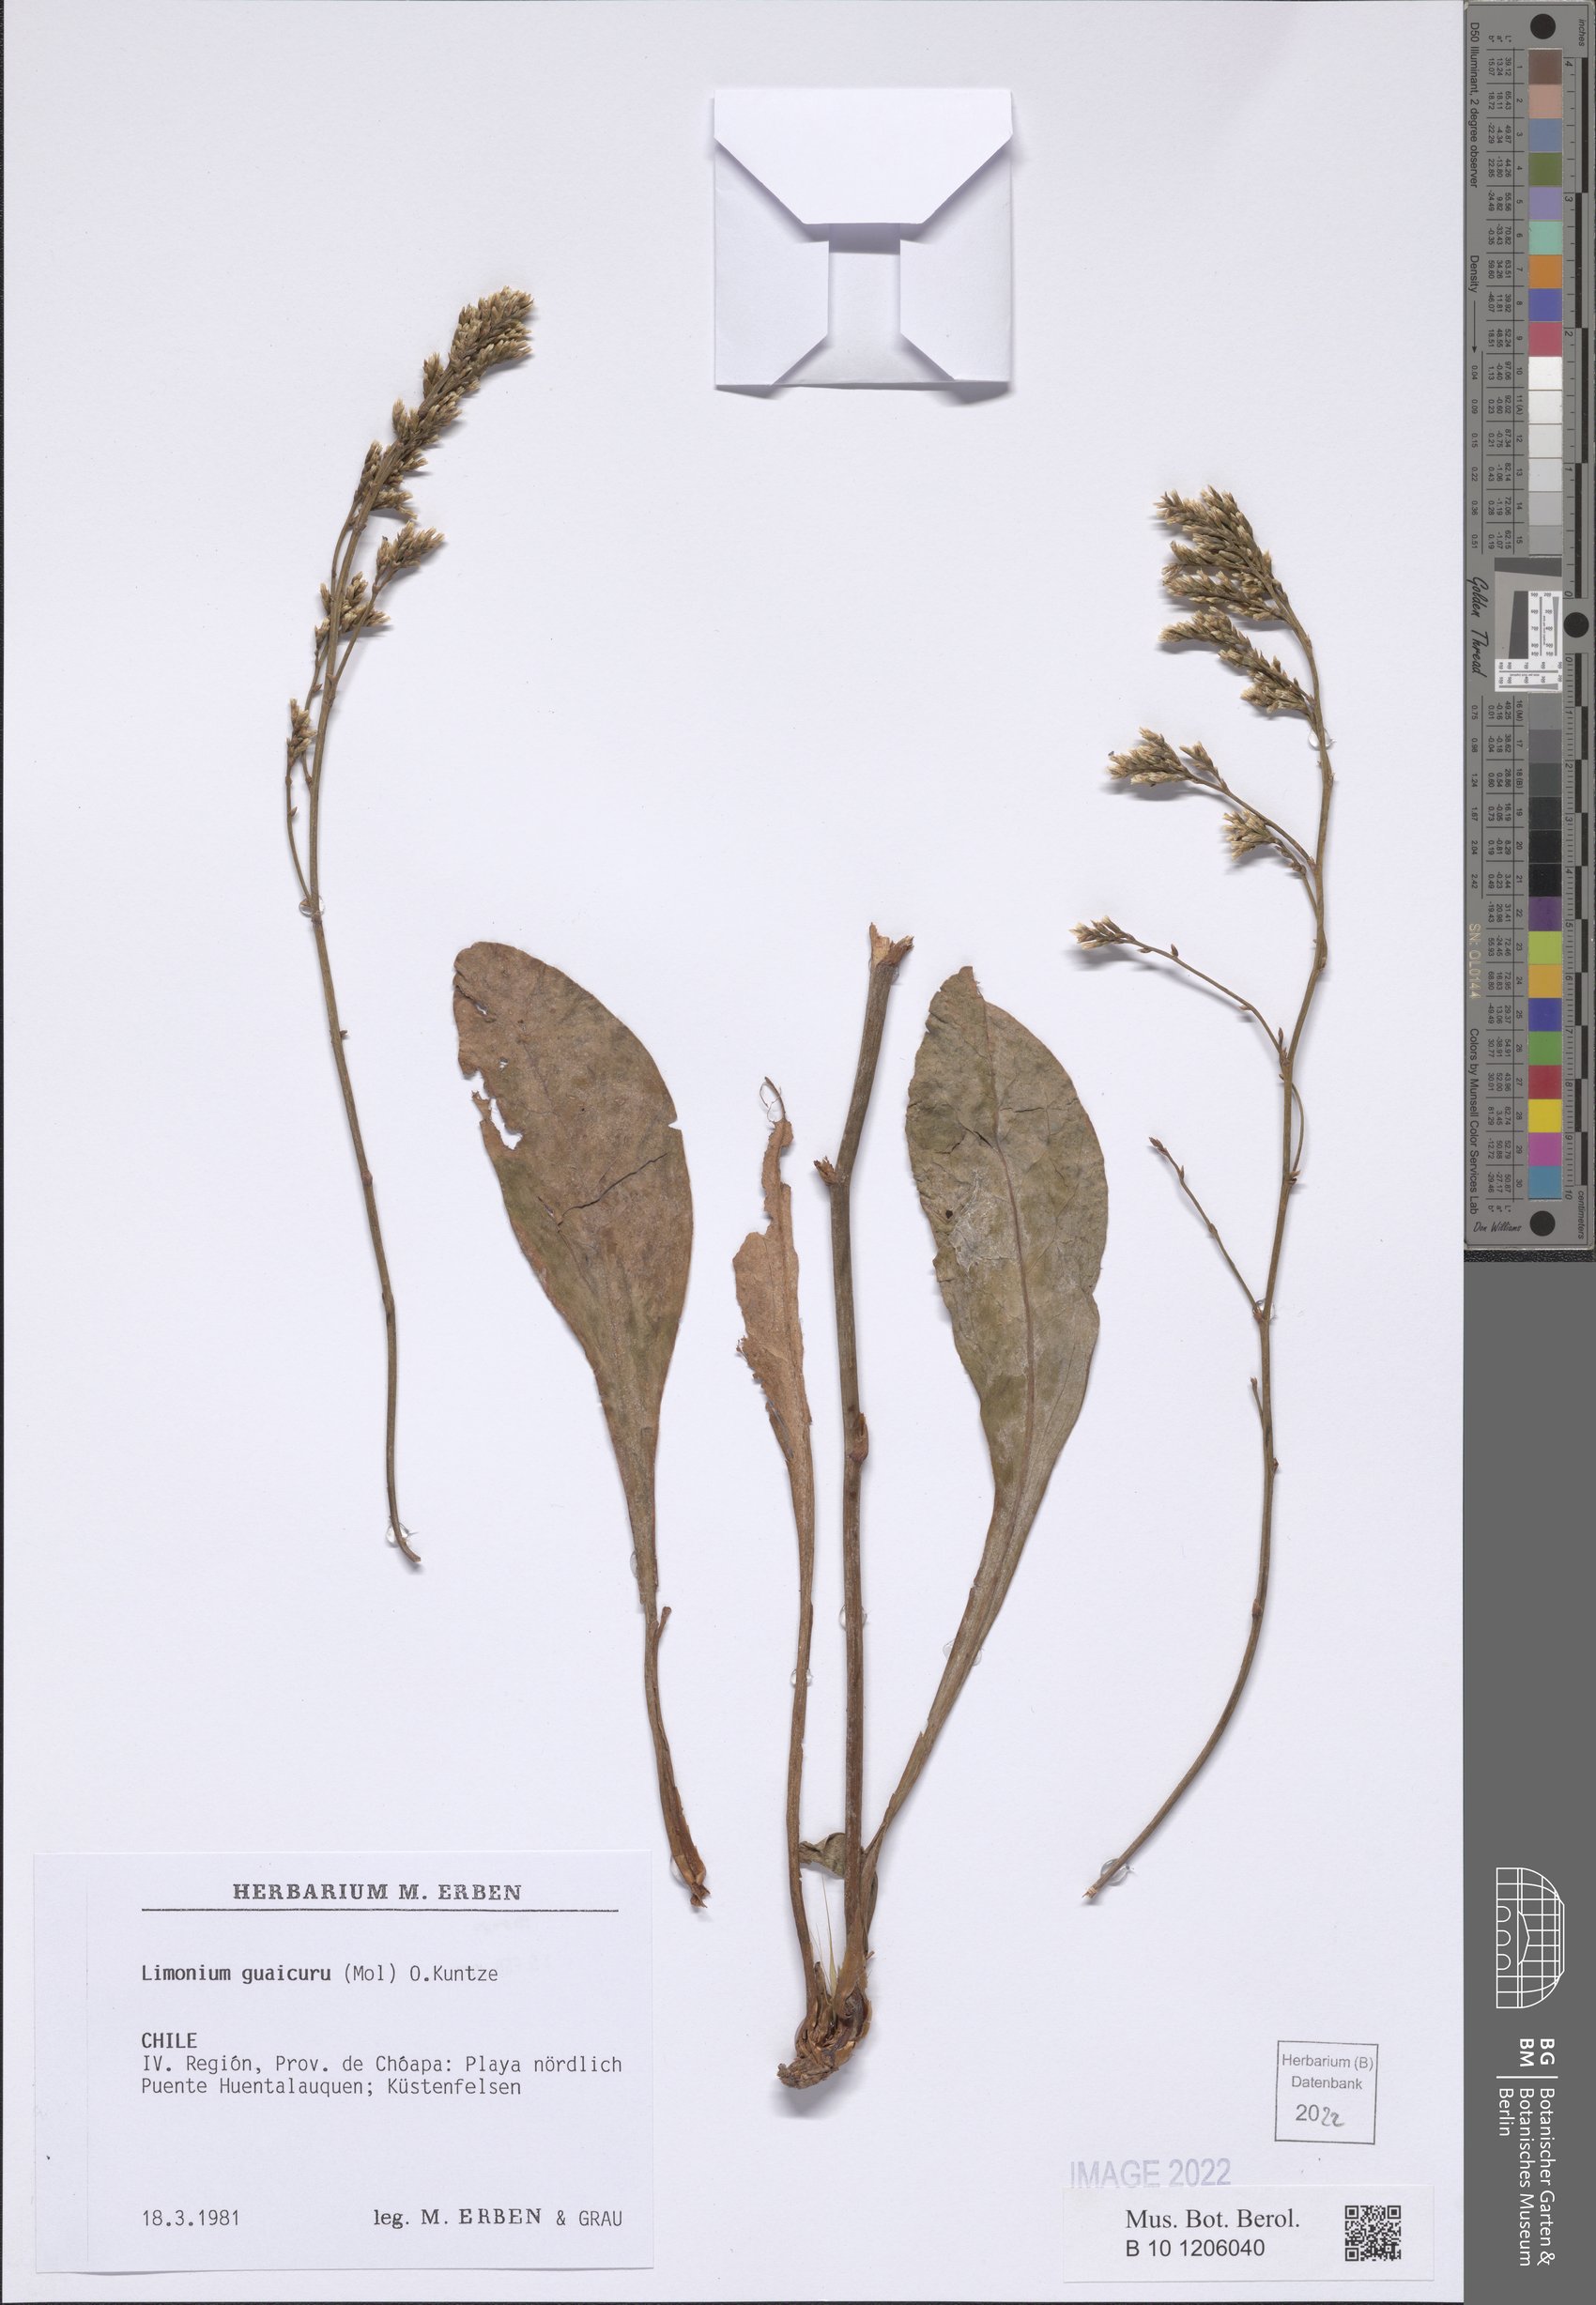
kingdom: Plantae
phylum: Tracheophyta
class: Magnoliopsida
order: Caryophyllales
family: Plumbaginaceae
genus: Limonium
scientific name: Limonium guaicuru
